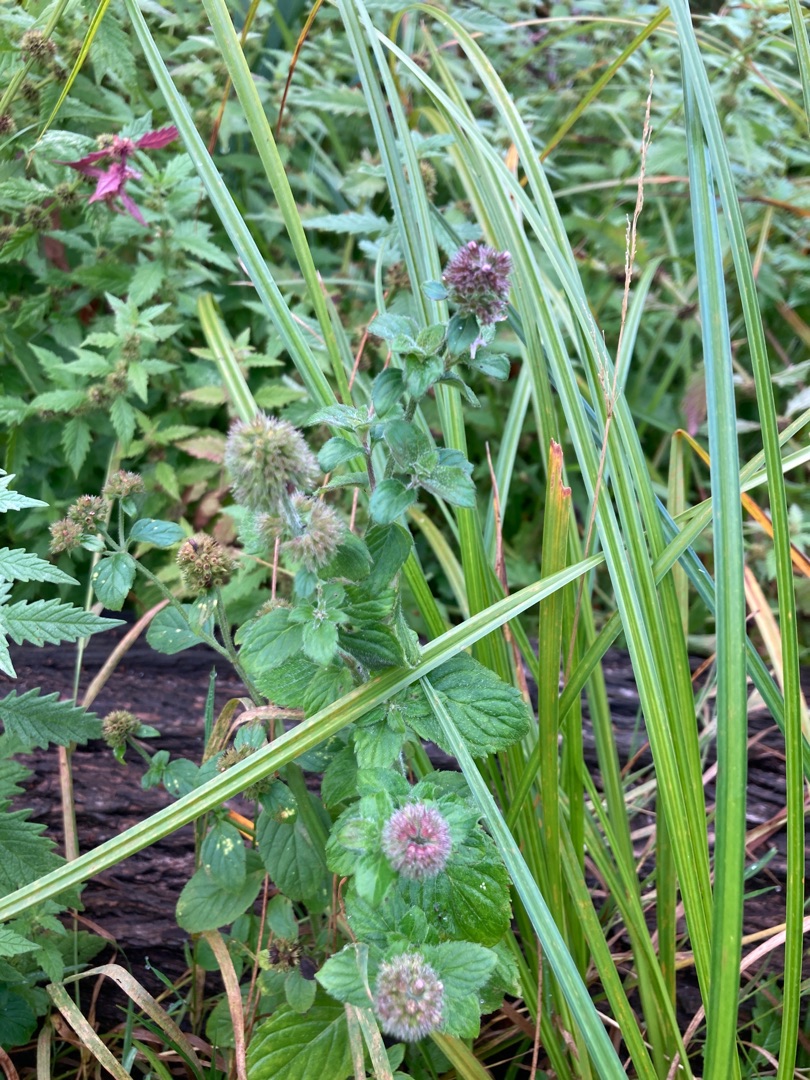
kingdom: Plantae
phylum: Tracheophyta
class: Magnoliopsida
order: Lamiales
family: Lamiaceae
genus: Mentha
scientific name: Mentha aquatica
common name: Vand-mynte
